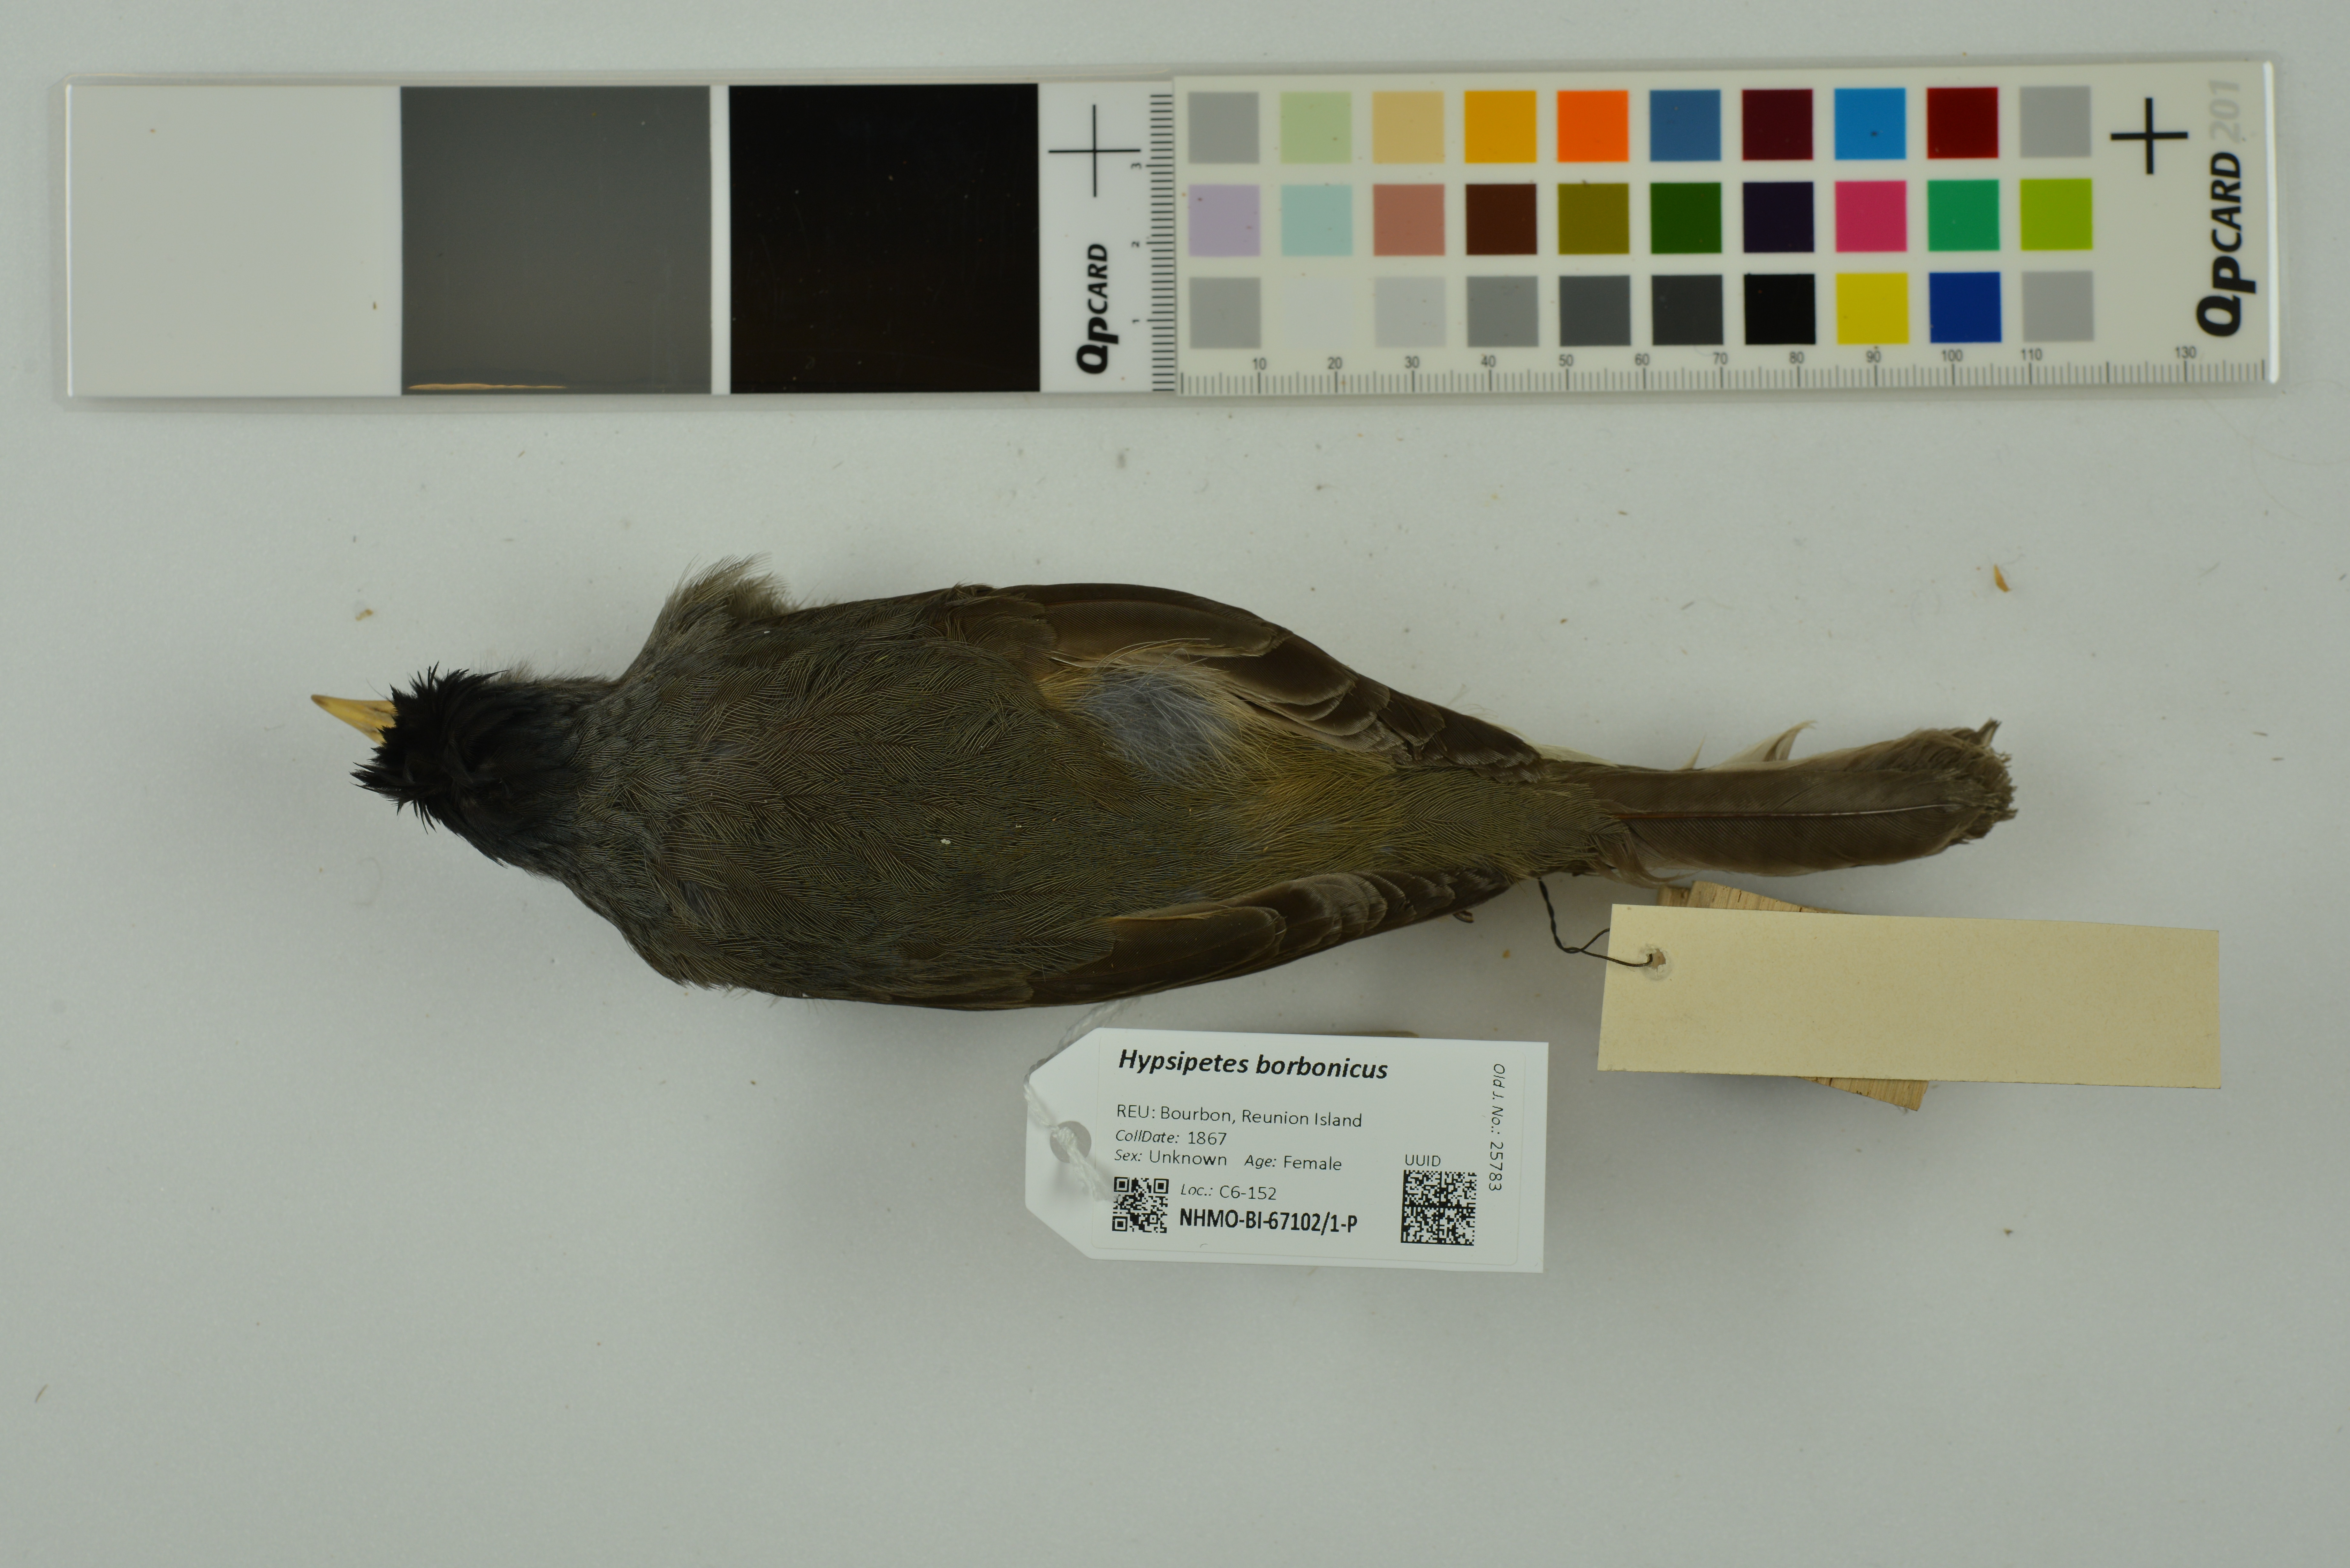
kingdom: Animalia
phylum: Chordata
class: Aves
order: Passeriformes
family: Pycnonotidae
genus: Hypsipetes
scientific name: Hypsipetes borbonicus
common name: Reunion bulbul
